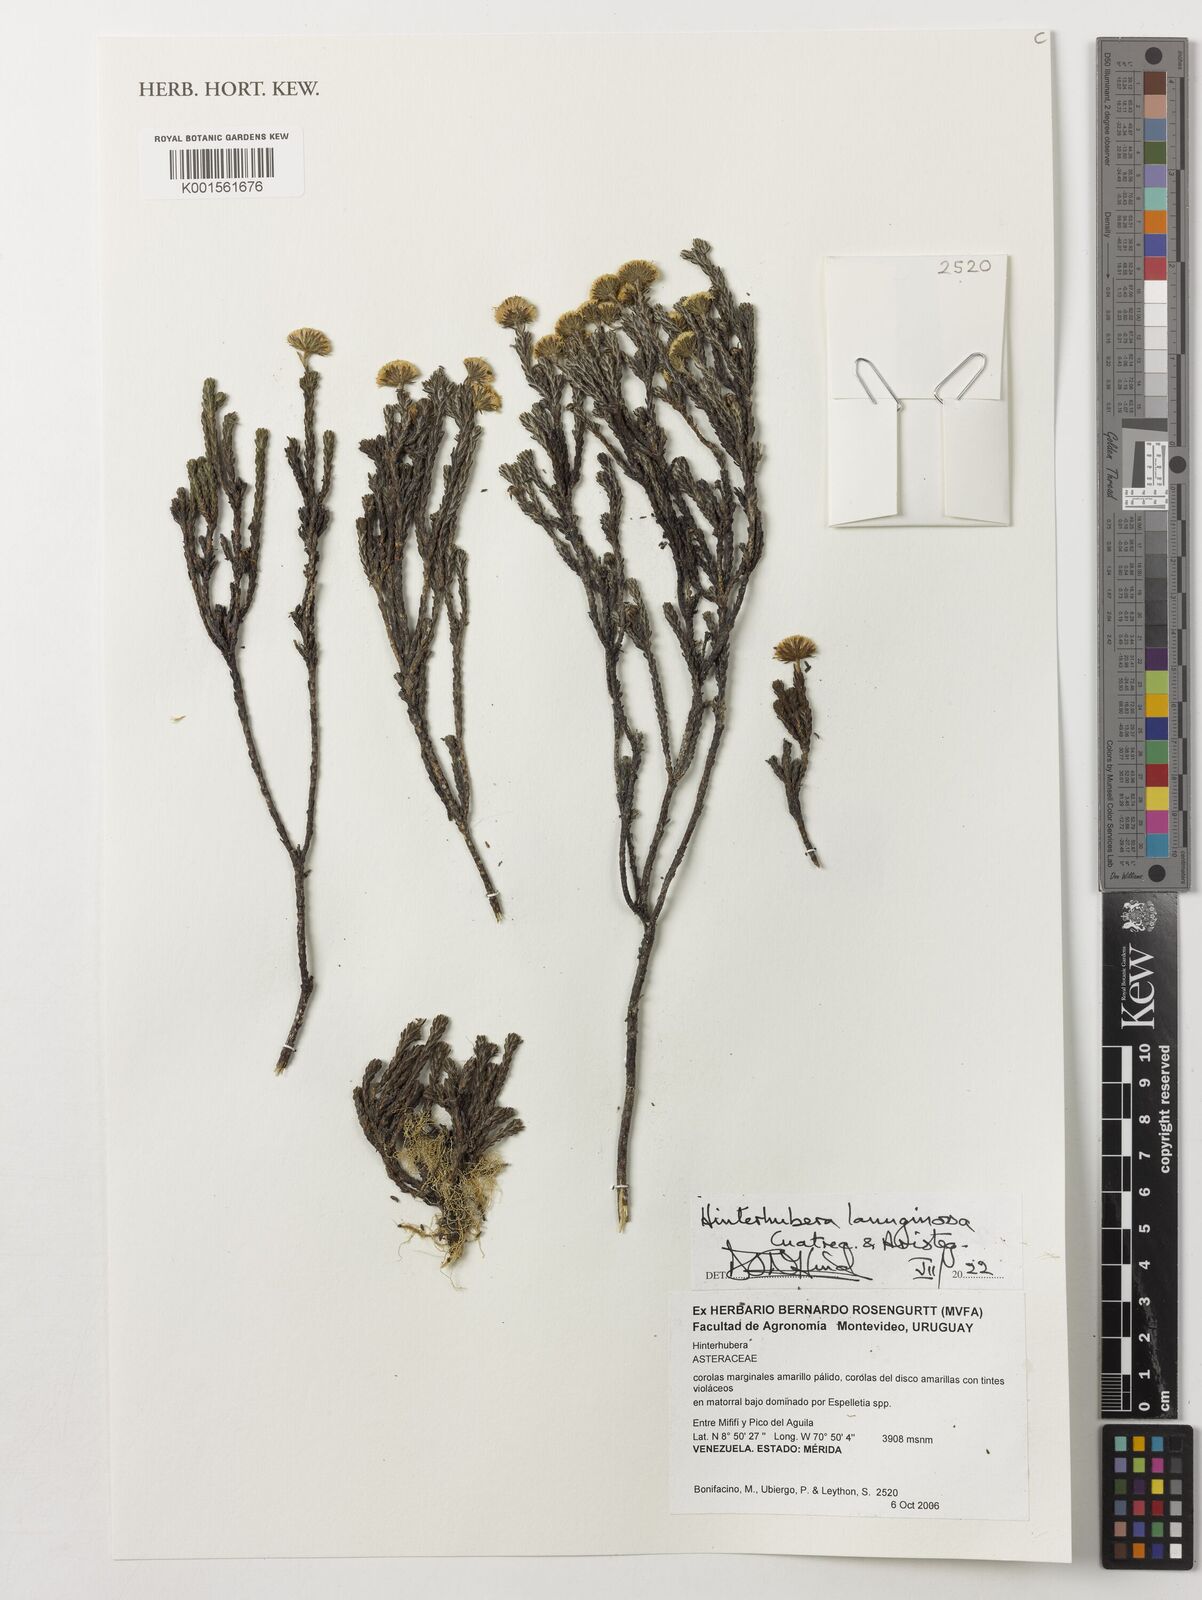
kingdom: Plantae
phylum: Tracheophyta
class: Magnoliopsida
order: Asterales
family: Asteraceae
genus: Hinterhubera
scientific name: Hinterhubera lanuginosa
